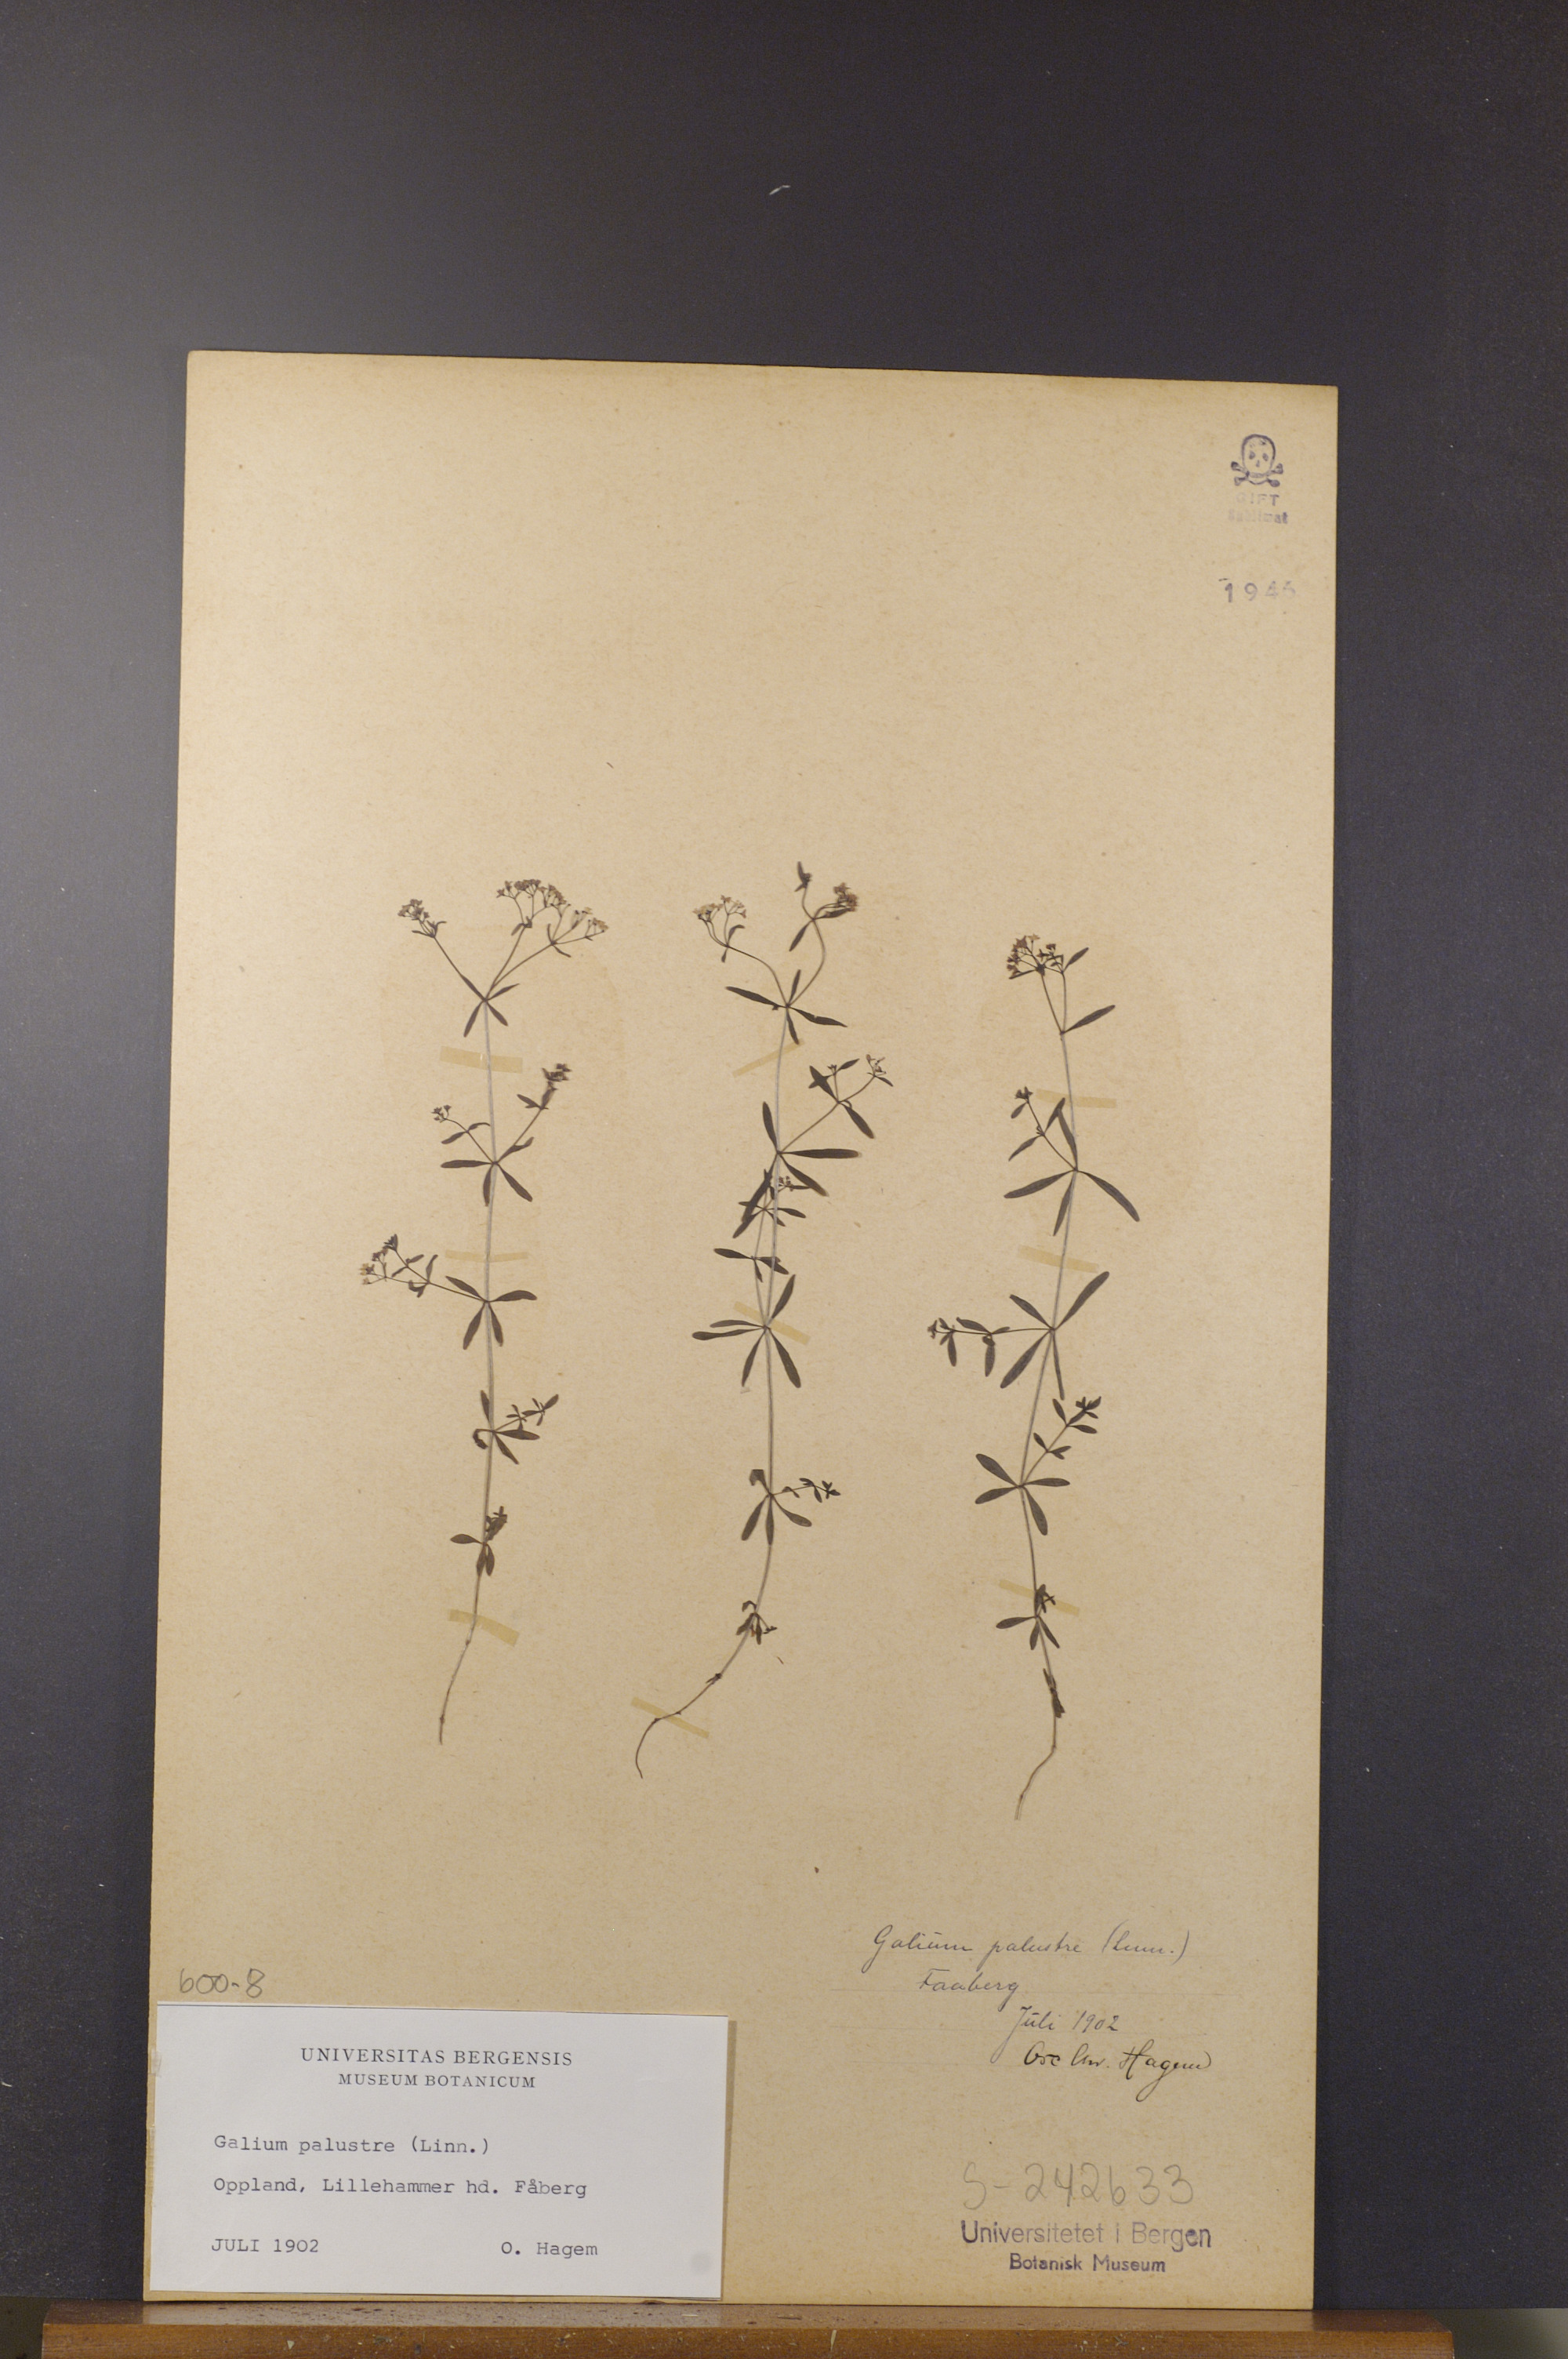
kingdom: Plantae
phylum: Tracheophyta
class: Magnoliopsida
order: Gentianales
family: Rubiaceae
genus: Galium
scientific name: Galium palustre
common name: Common marsh-bedstraw
